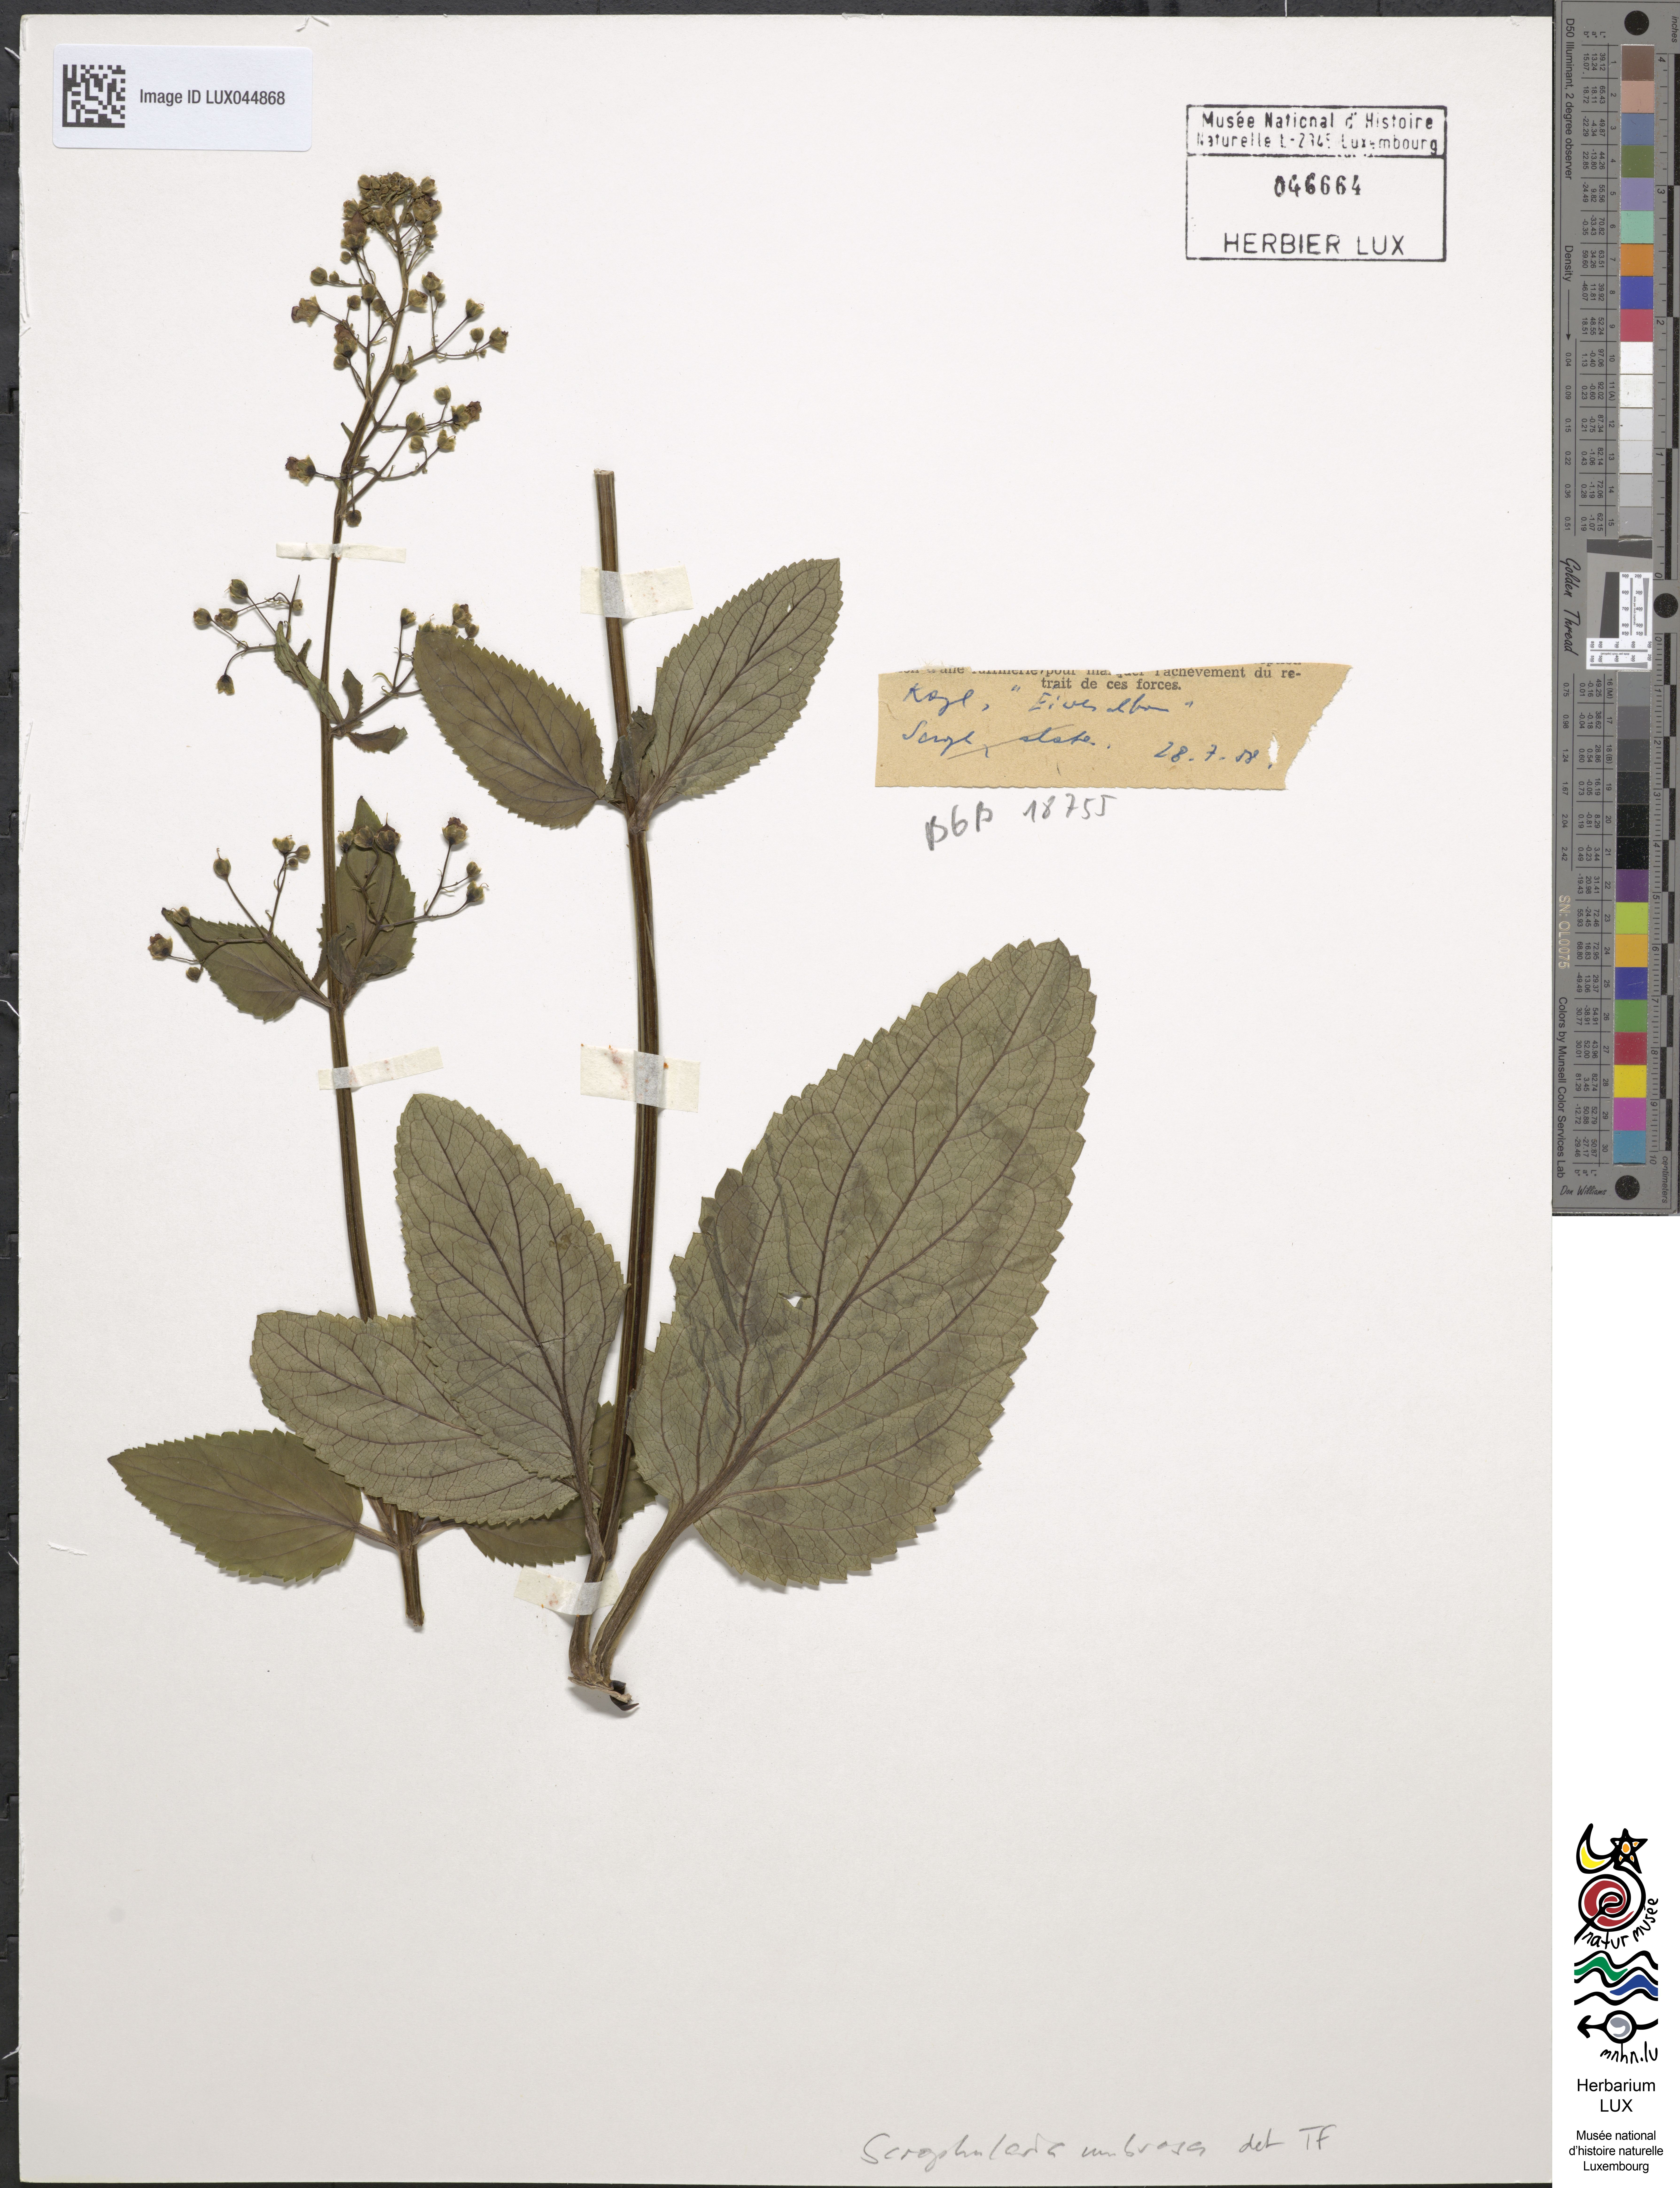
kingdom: Plantae
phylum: Tracheophyta
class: Magnoliopsida
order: Lamiales
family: Scrophulariaceae
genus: Scrophularia
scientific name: Scrophularia umbrosa
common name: Green figwort
